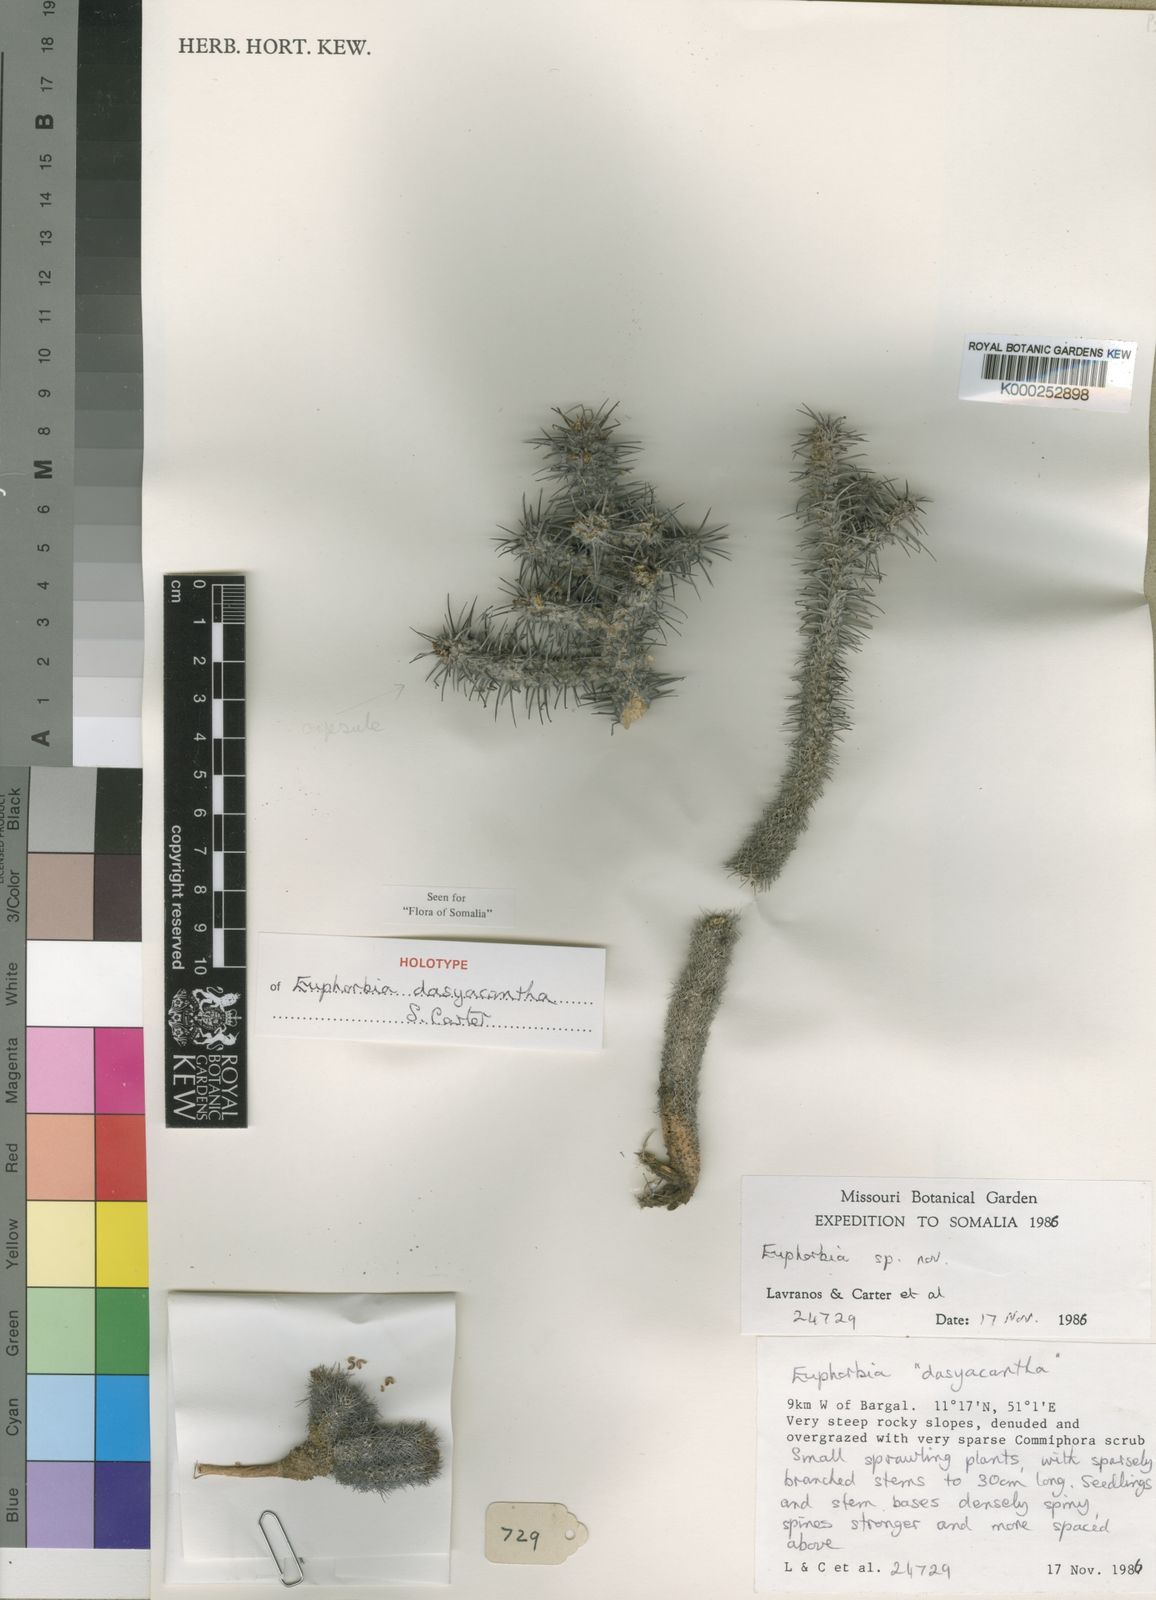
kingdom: Plantae
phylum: Tracheophyta
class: Magnoliopsida
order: Malpighiales
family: Euphorbiaceae
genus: Euphorbia
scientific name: Euphorbia dasyacantha
